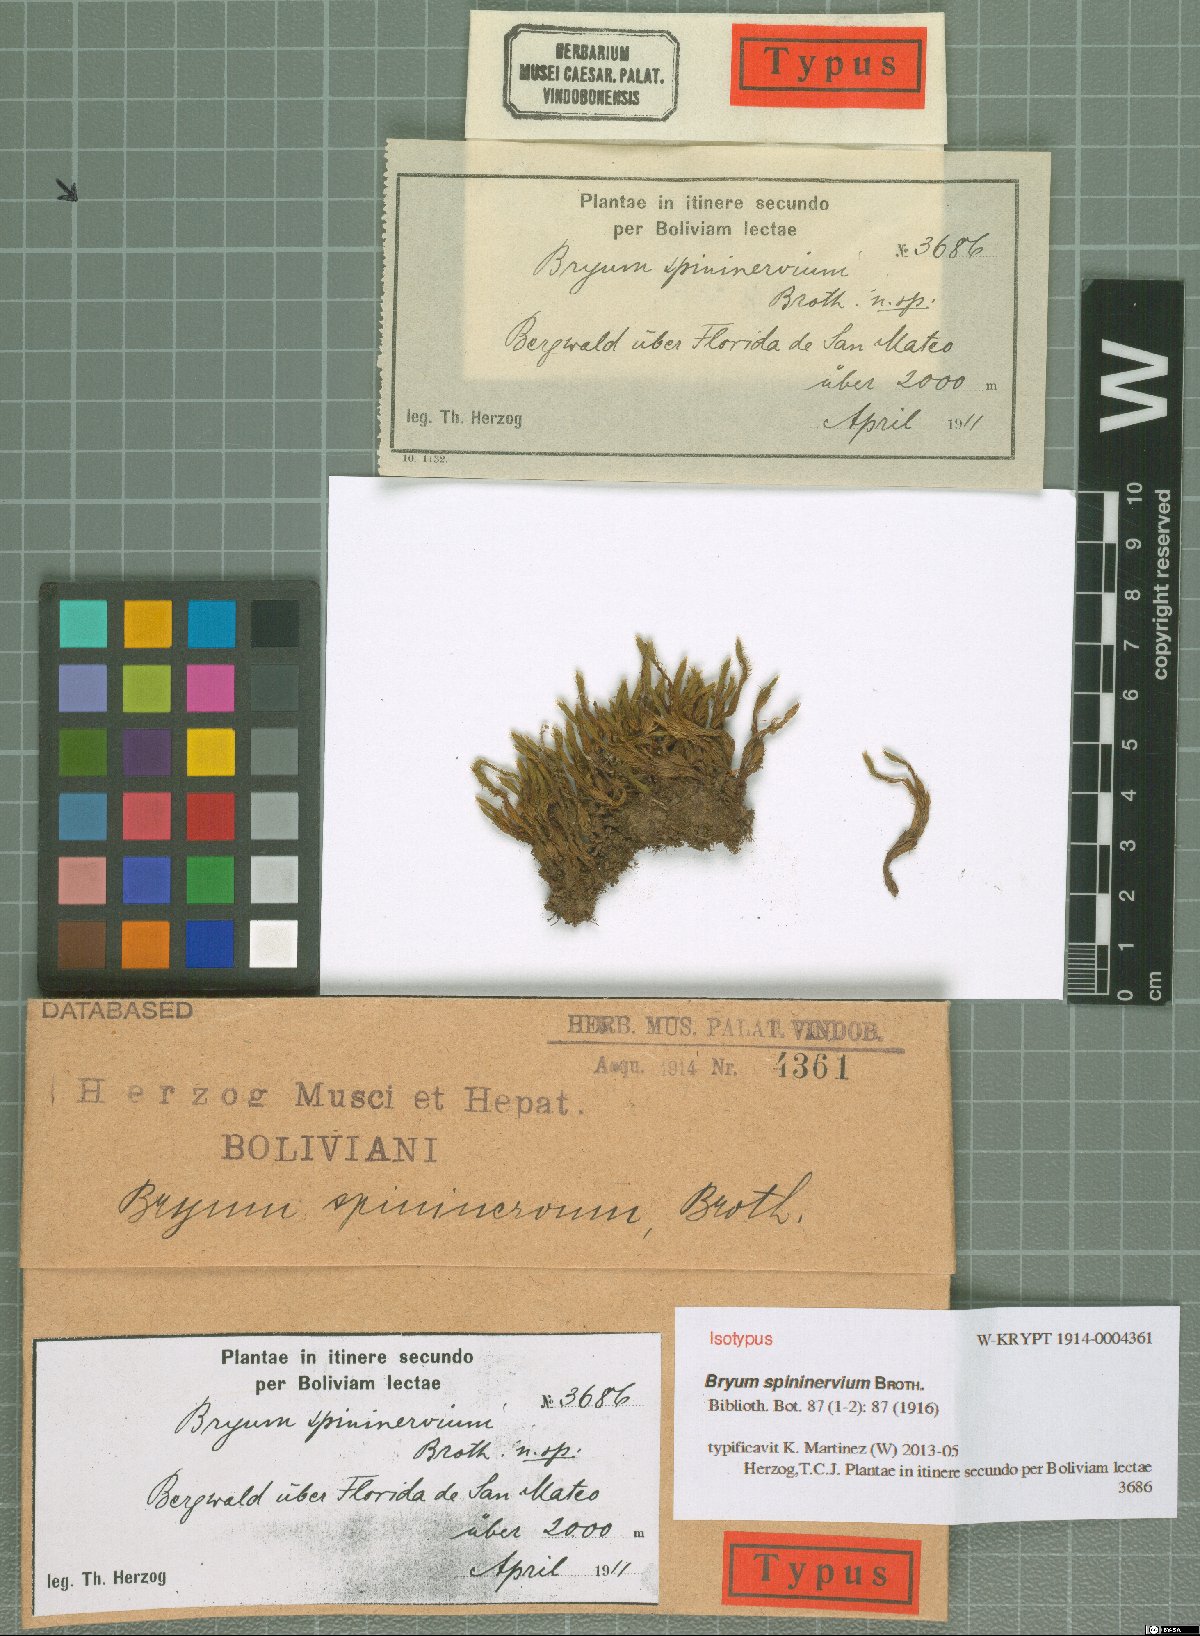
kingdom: Plantae
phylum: Bryophyta
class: Bryopsida
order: Bryales
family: Bryaceae
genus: Rosulabryum
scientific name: Rosulabryum spininervium
